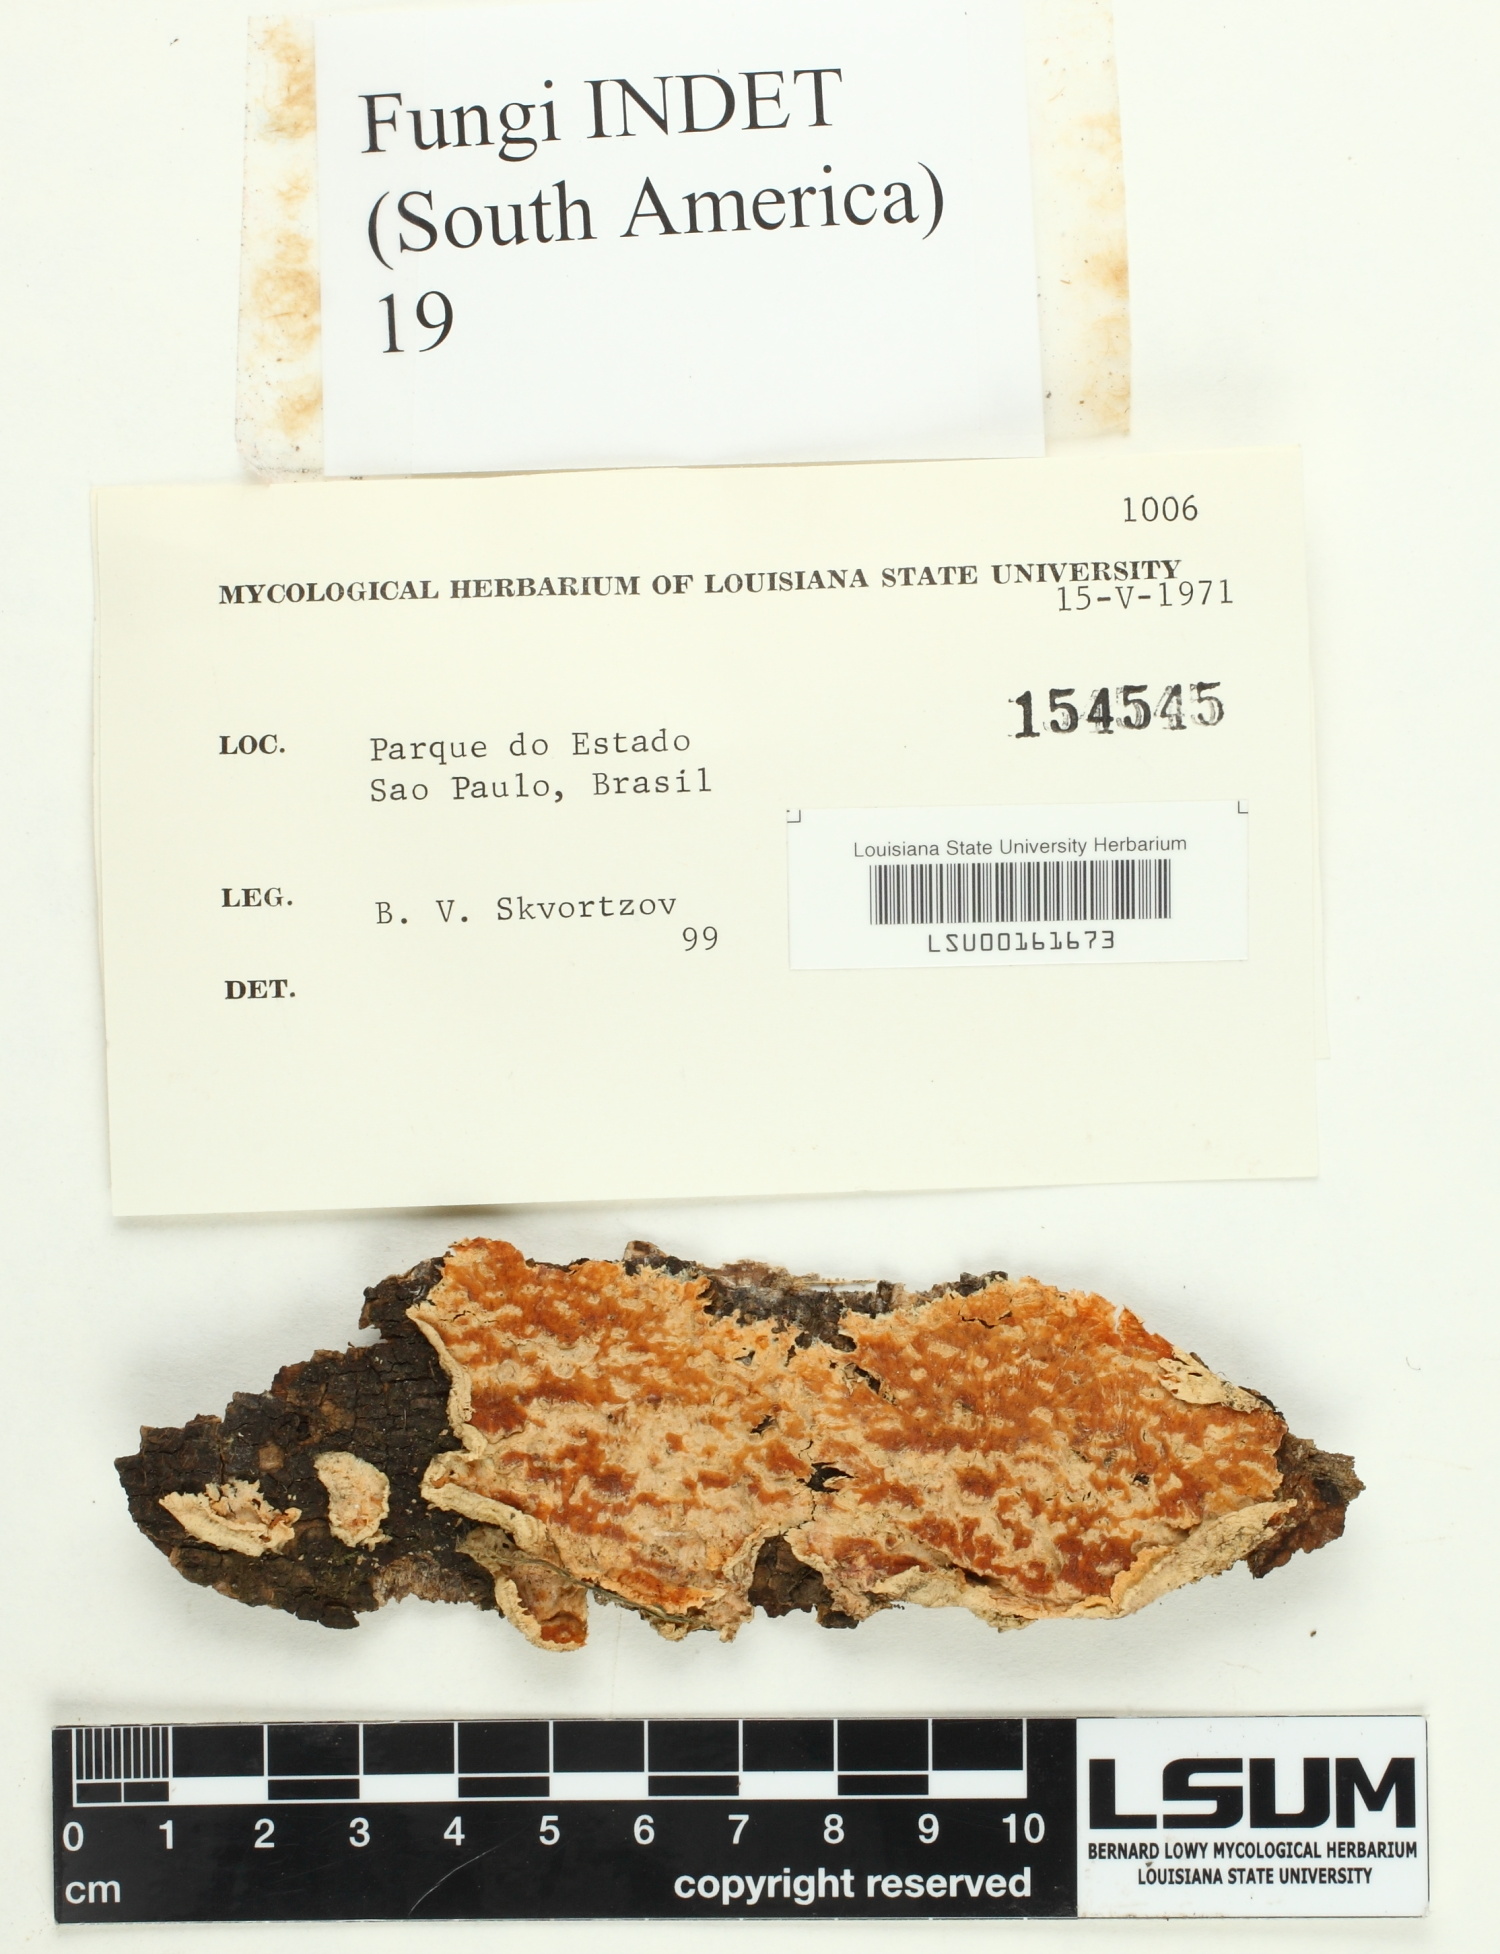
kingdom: Fungi
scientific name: Fungi
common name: Fungi
